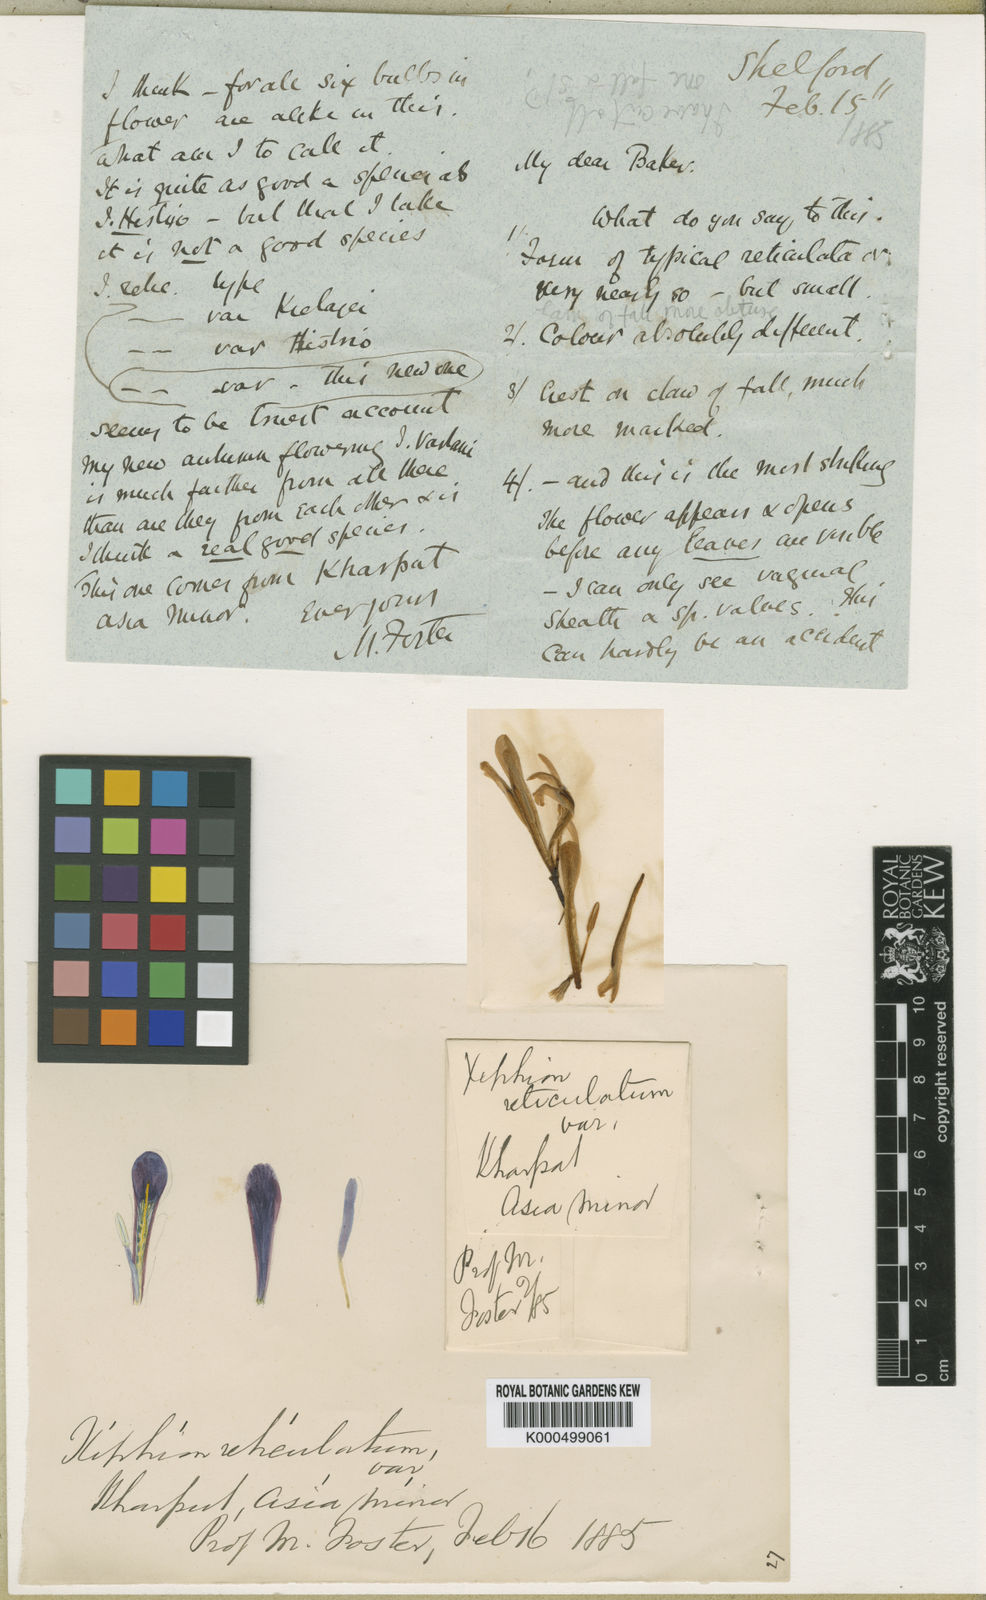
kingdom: Plantae
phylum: Tracheophyta
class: Liliopsida
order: Asparagales
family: Iridaceae
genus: Iris
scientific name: Iris
